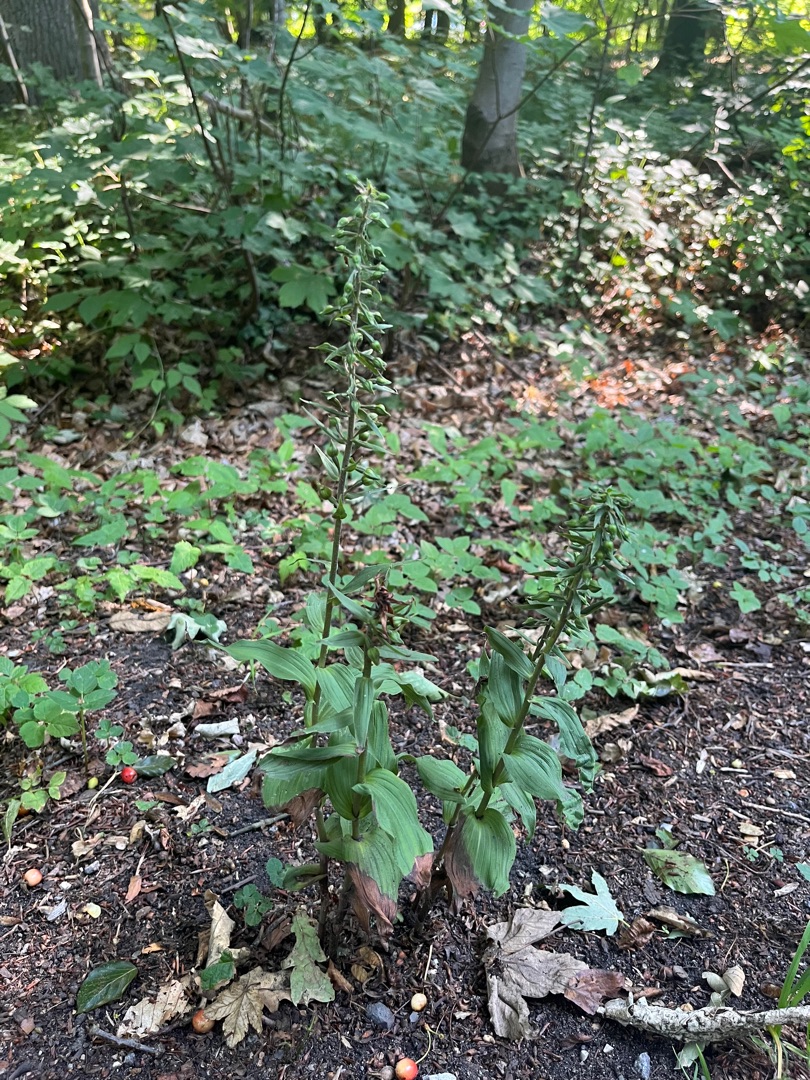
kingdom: Plantae
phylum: Tracheophyta
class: Liliopsida
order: Asparagales
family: Orchidaceae
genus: Epipactis
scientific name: Epipactis helleborine
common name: Skov-hullæbe
